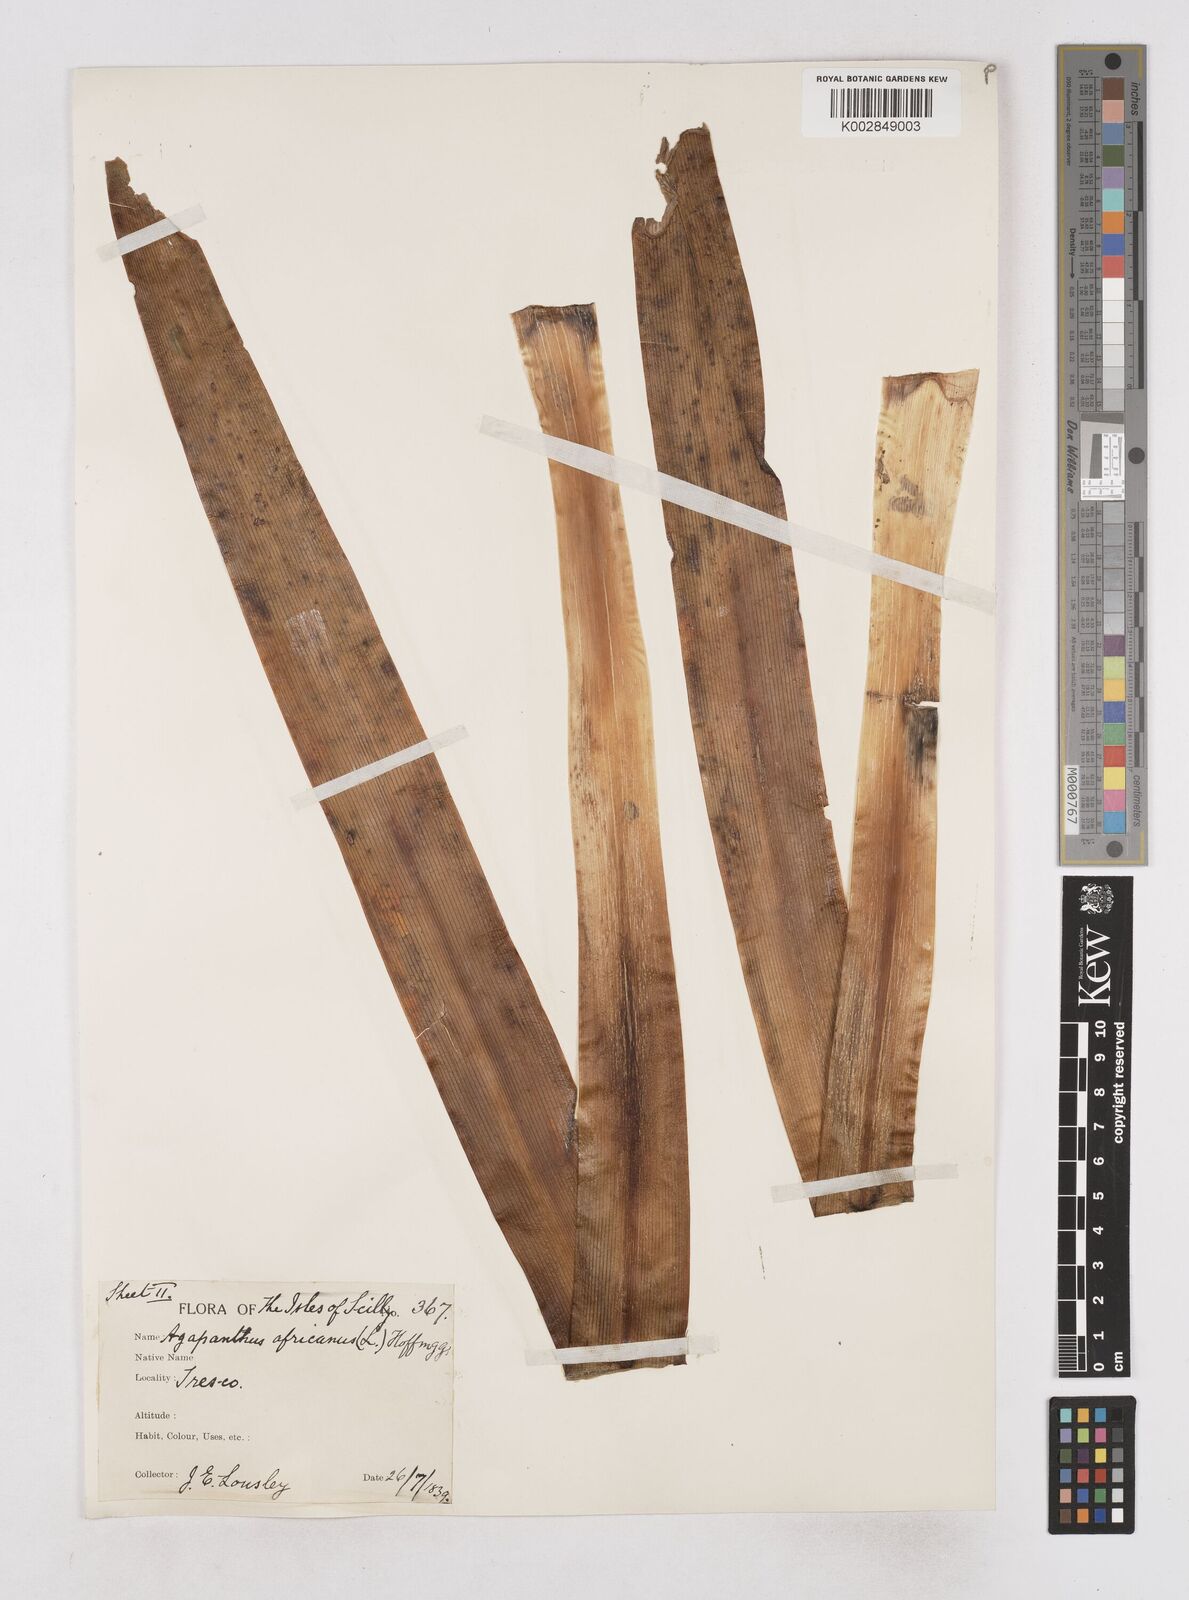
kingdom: Plantae
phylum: Tracheophyta
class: Liliopsida
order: Asparagales
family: Amaryllidaceae
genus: Agapanthus
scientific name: Agapanthus praecox
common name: African-lily
